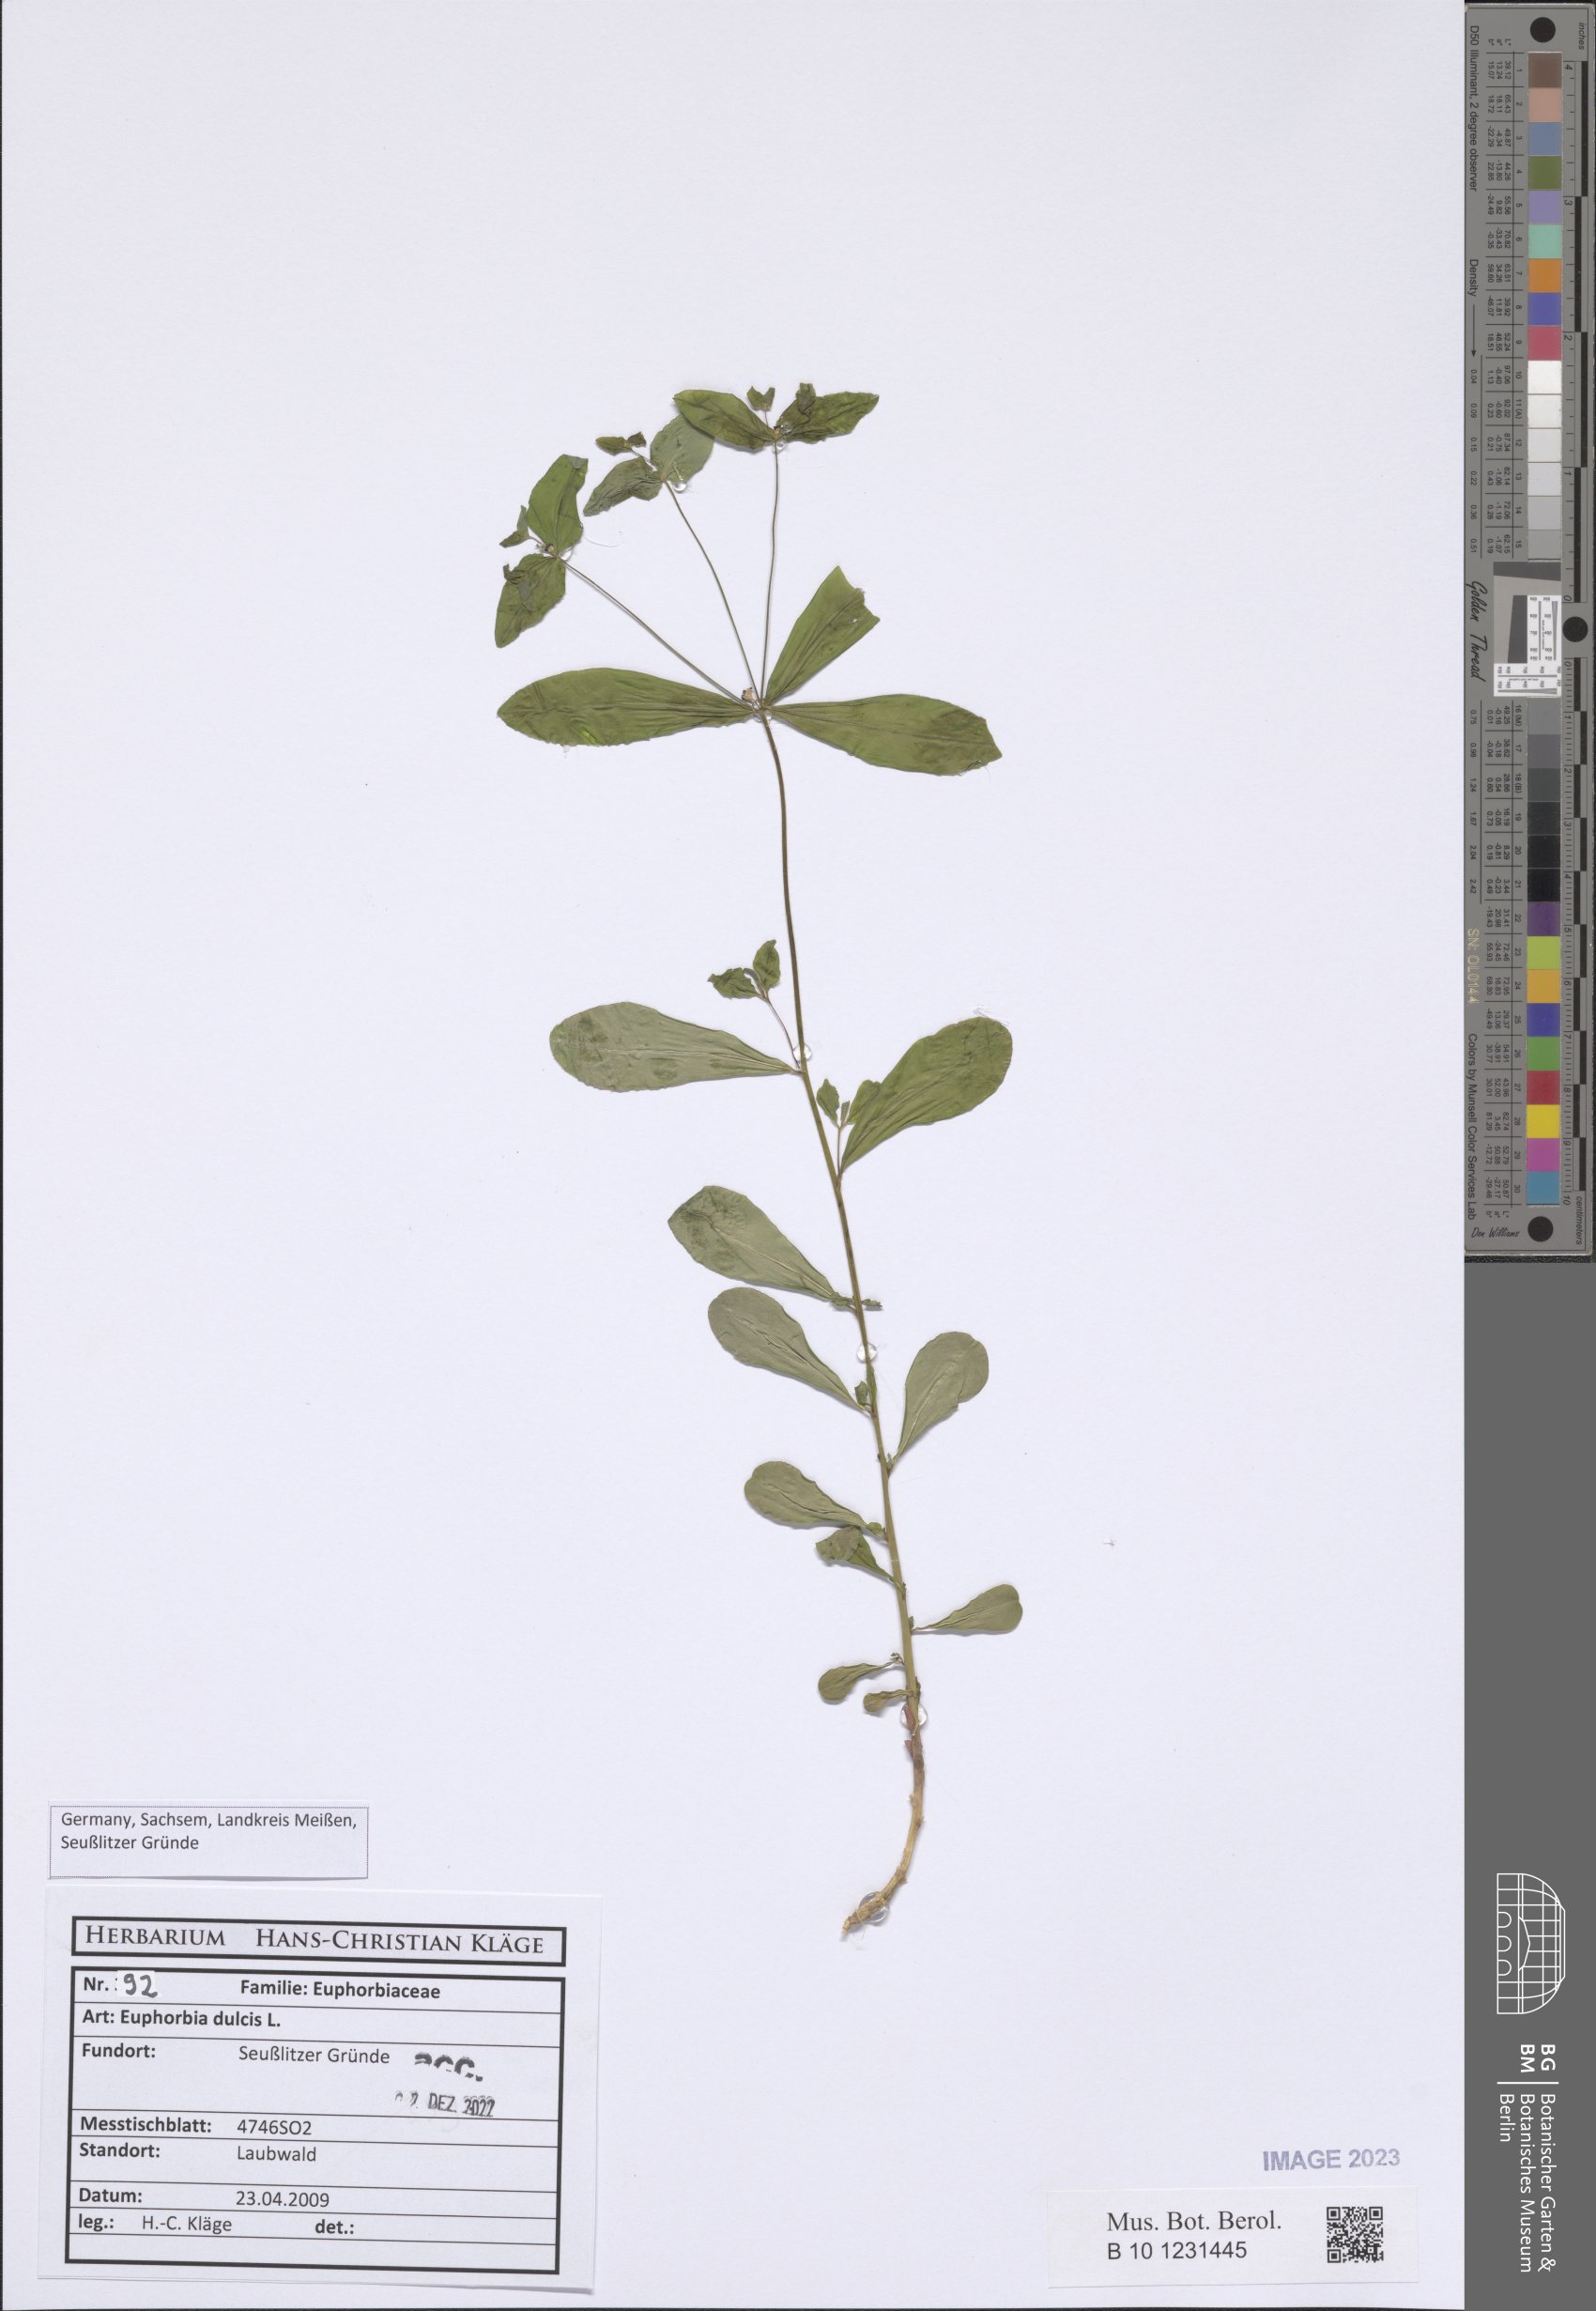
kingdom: Plantae
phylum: Tracheophyta
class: Magnoliopsida
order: Malpighiales
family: Euphorbiaceae
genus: Euphorbia
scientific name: Euphorbia dulcis
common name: Sweet spurge
